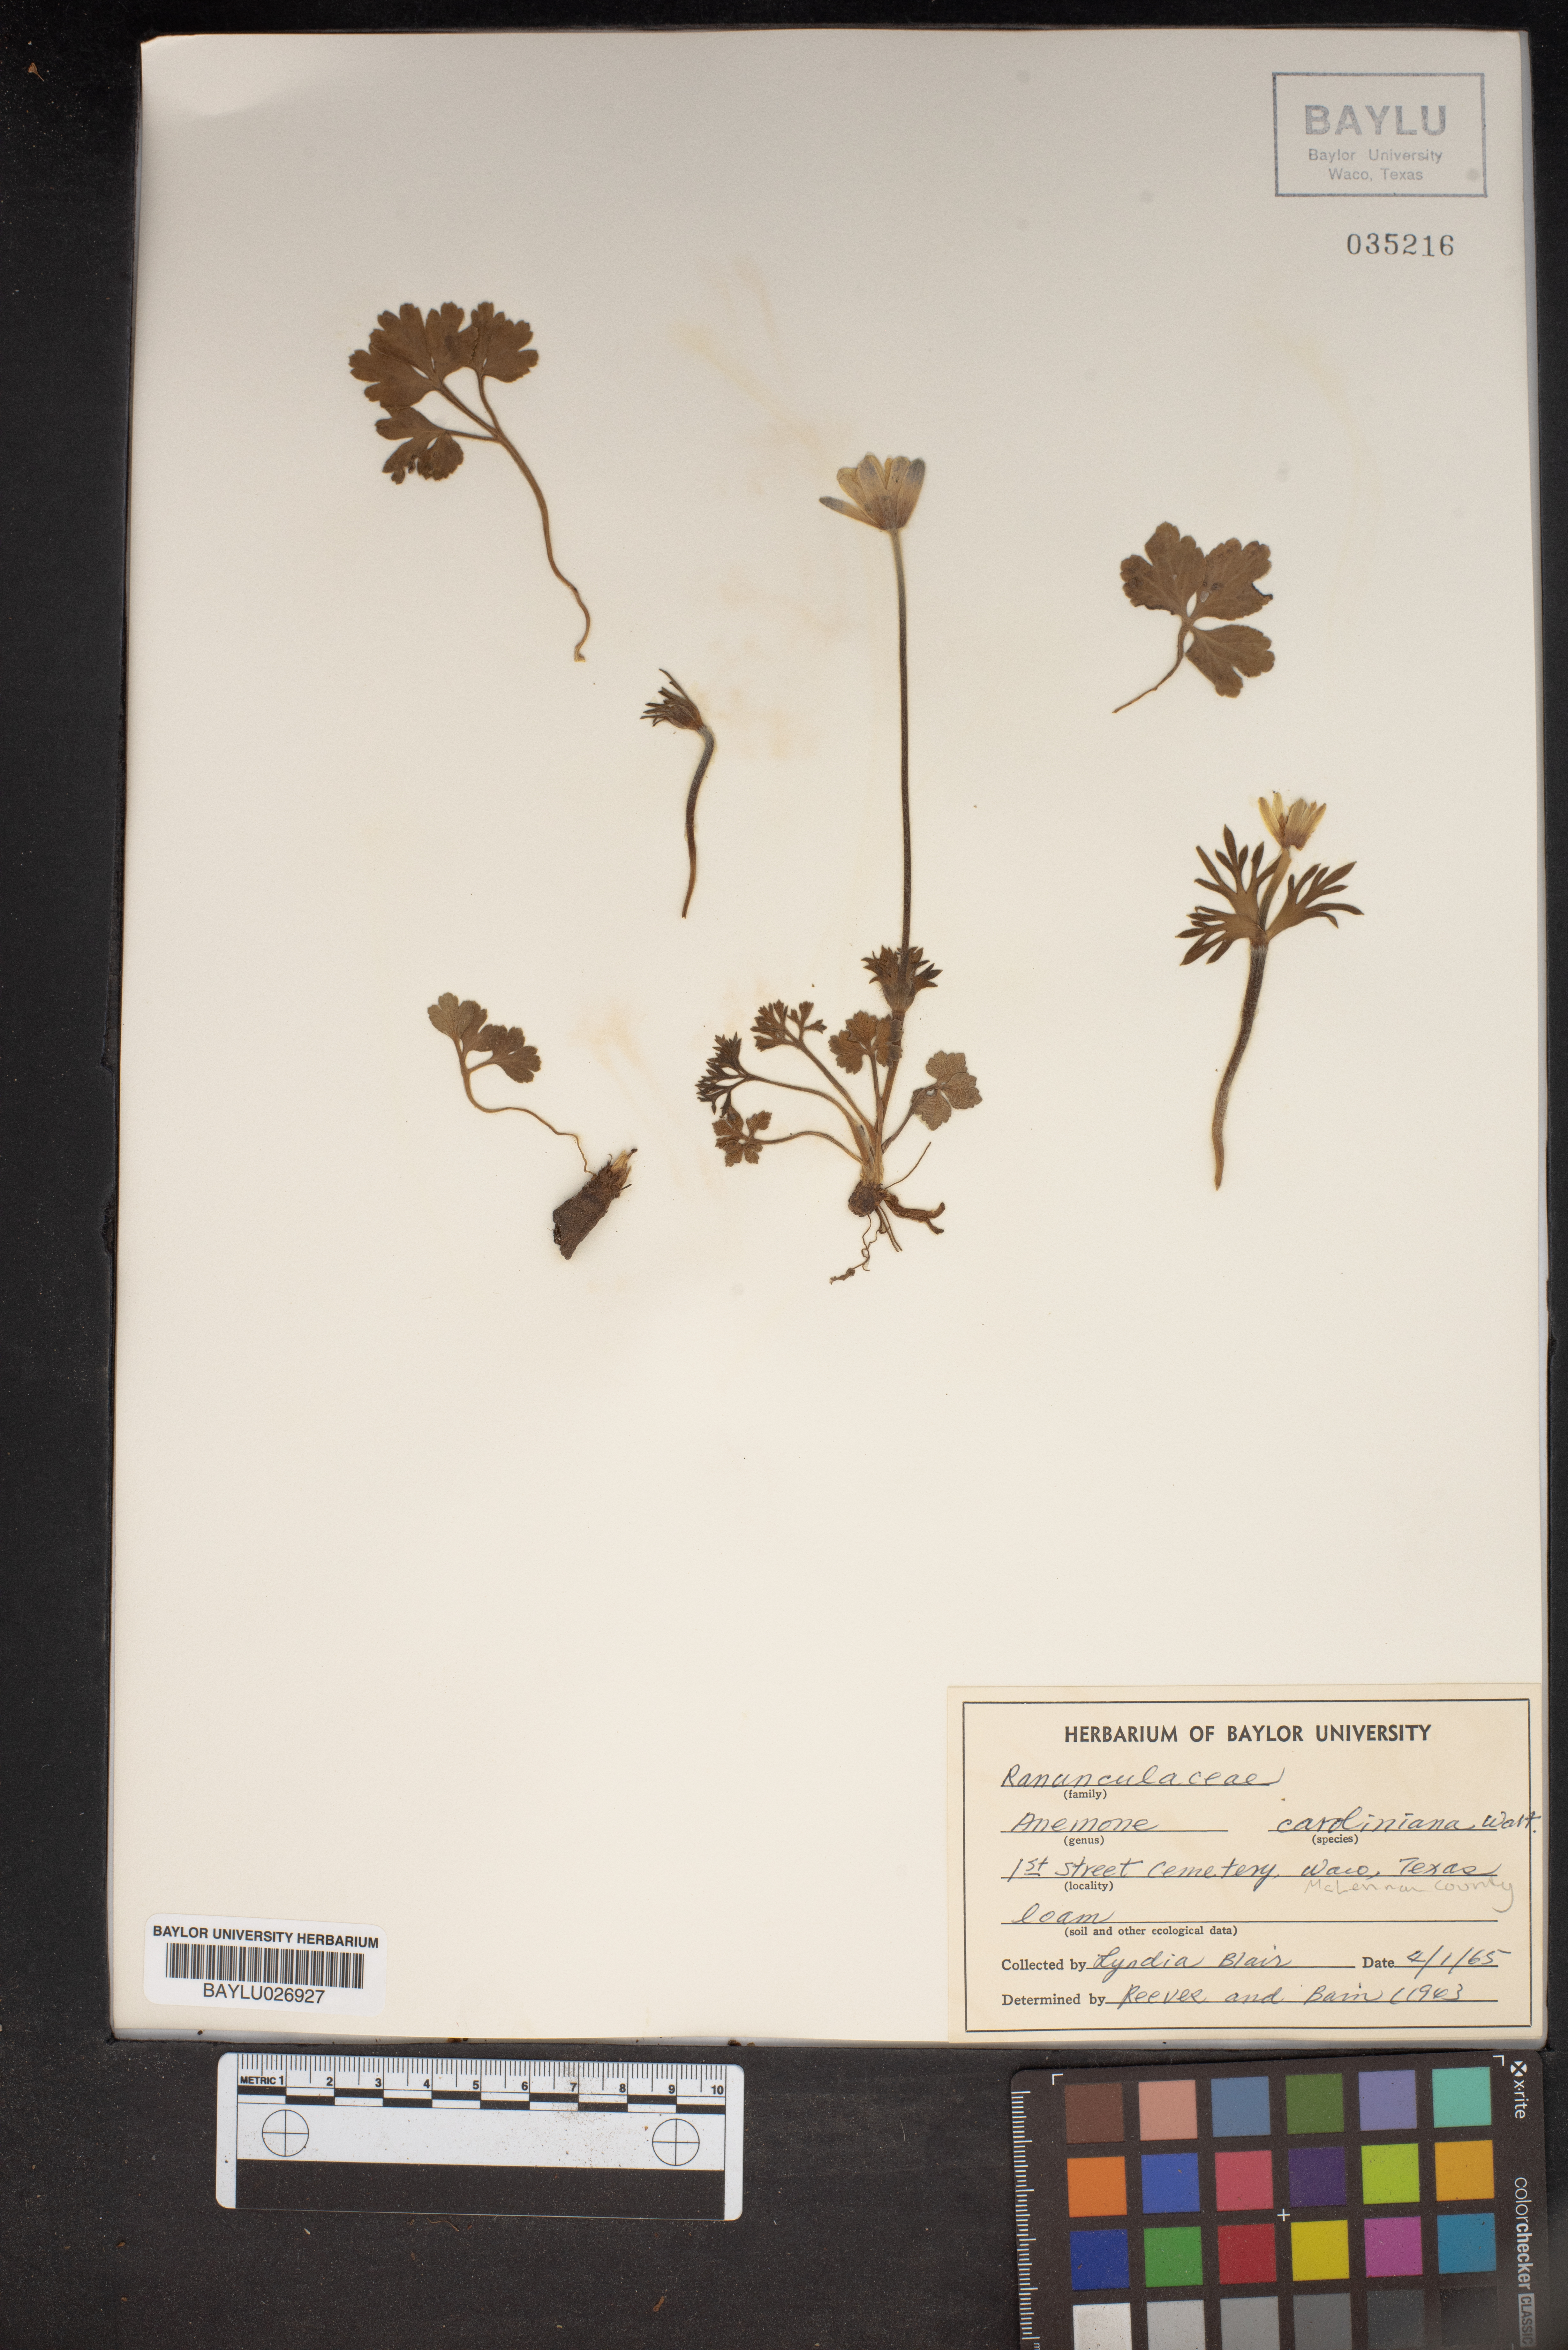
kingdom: Plantae
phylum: Tracheophyta
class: Magnoliopsida
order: Ranunculales
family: Ranunculaceae
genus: Anemone
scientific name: Anemone caroliniana
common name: Carolina anemone
